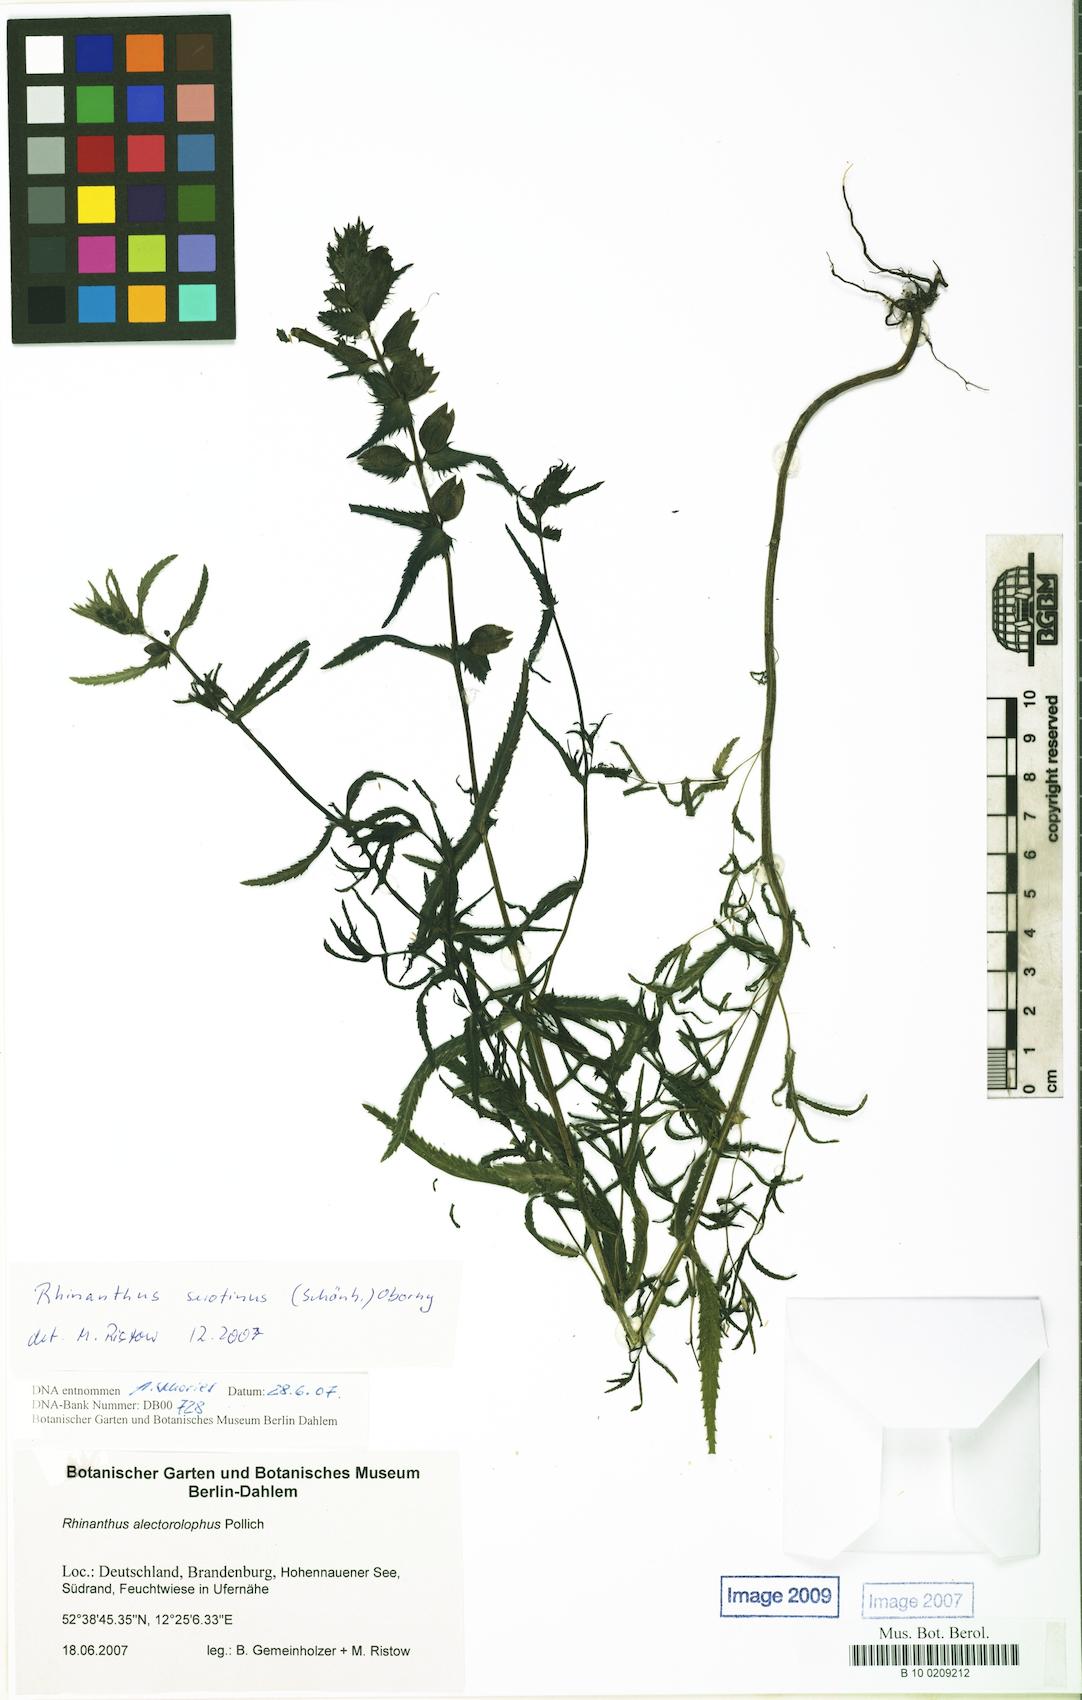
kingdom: Plantae
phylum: Tracheophyta
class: Magnoliopsida
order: Lamiales
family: Orobanchaceae
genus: Rhinanthus
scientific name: Rhinanthus serotinus
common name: Late-flowering yellow rattle
